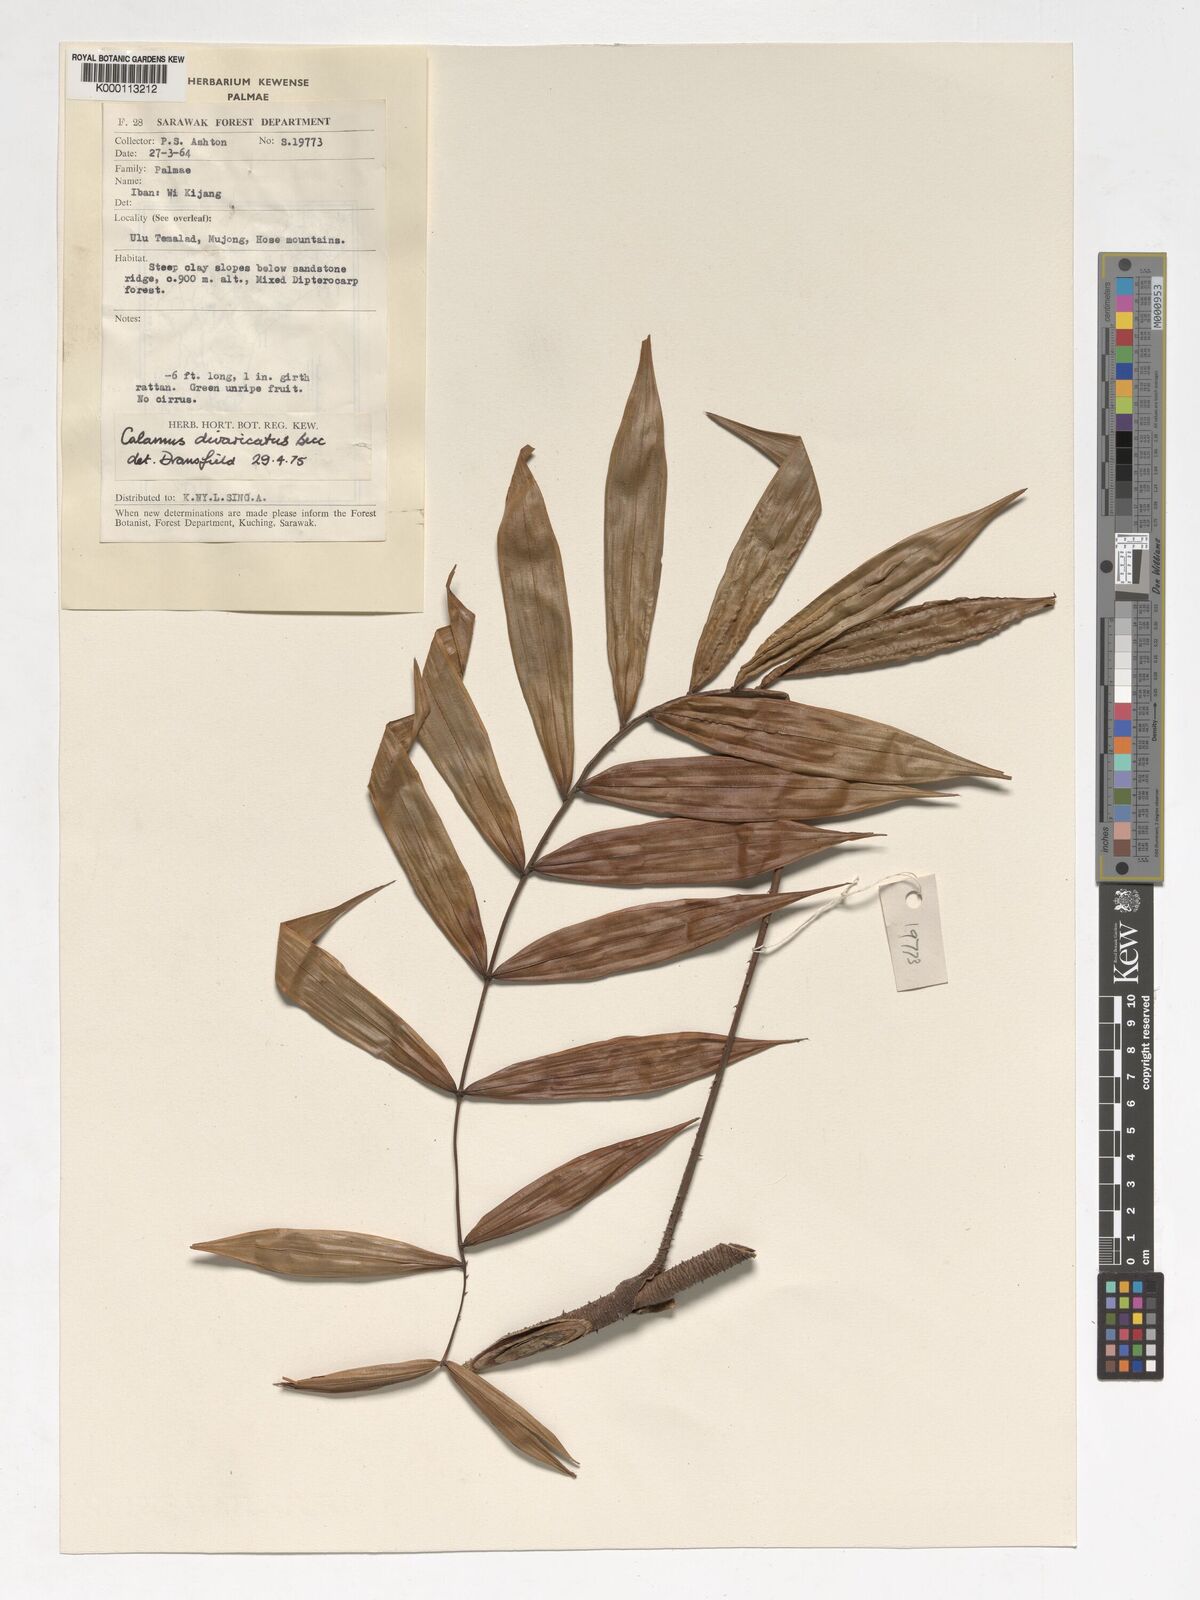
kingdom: Plantae
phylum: Tracheophyta
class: Liliopsida
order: Arecales
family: Arecaceae
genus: Calamus
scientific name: Calamus divaricatus
